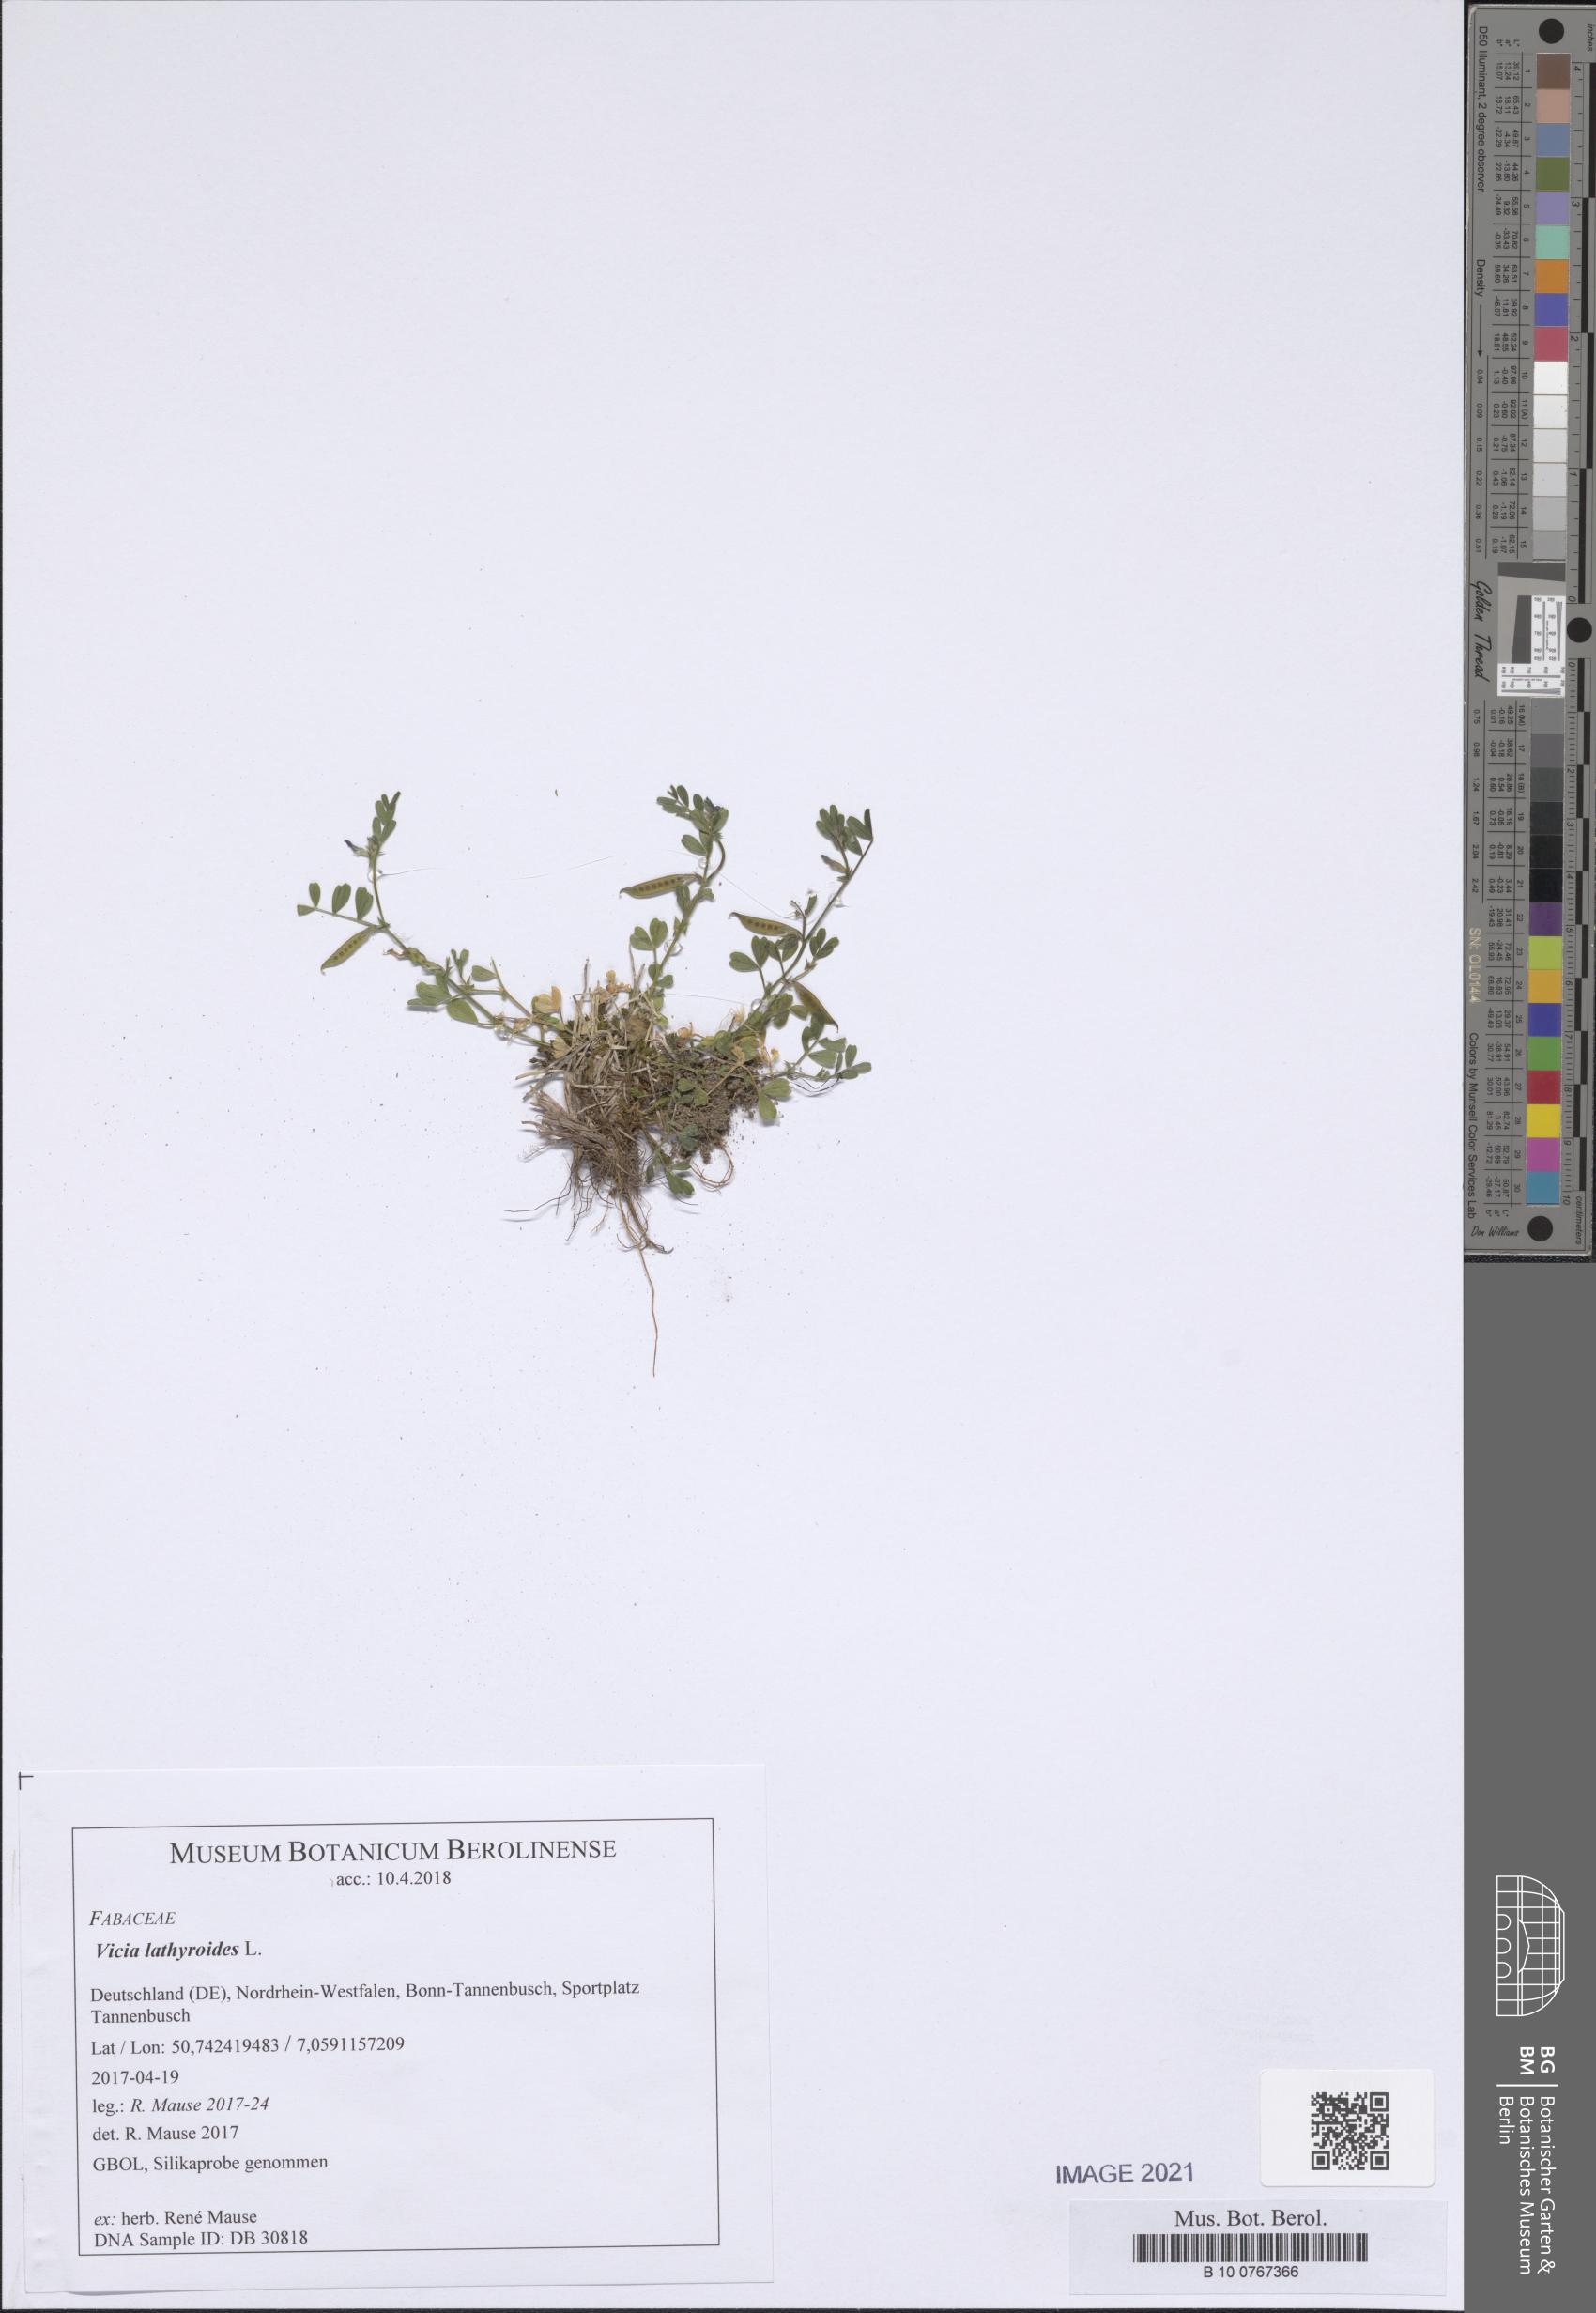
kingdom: Plantae
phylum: Tracheophyta
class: Magnoliopsida
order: Fabales
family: Fabaceae
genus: Vicia
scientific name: Vicia lathyroides
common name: Spring vetch
